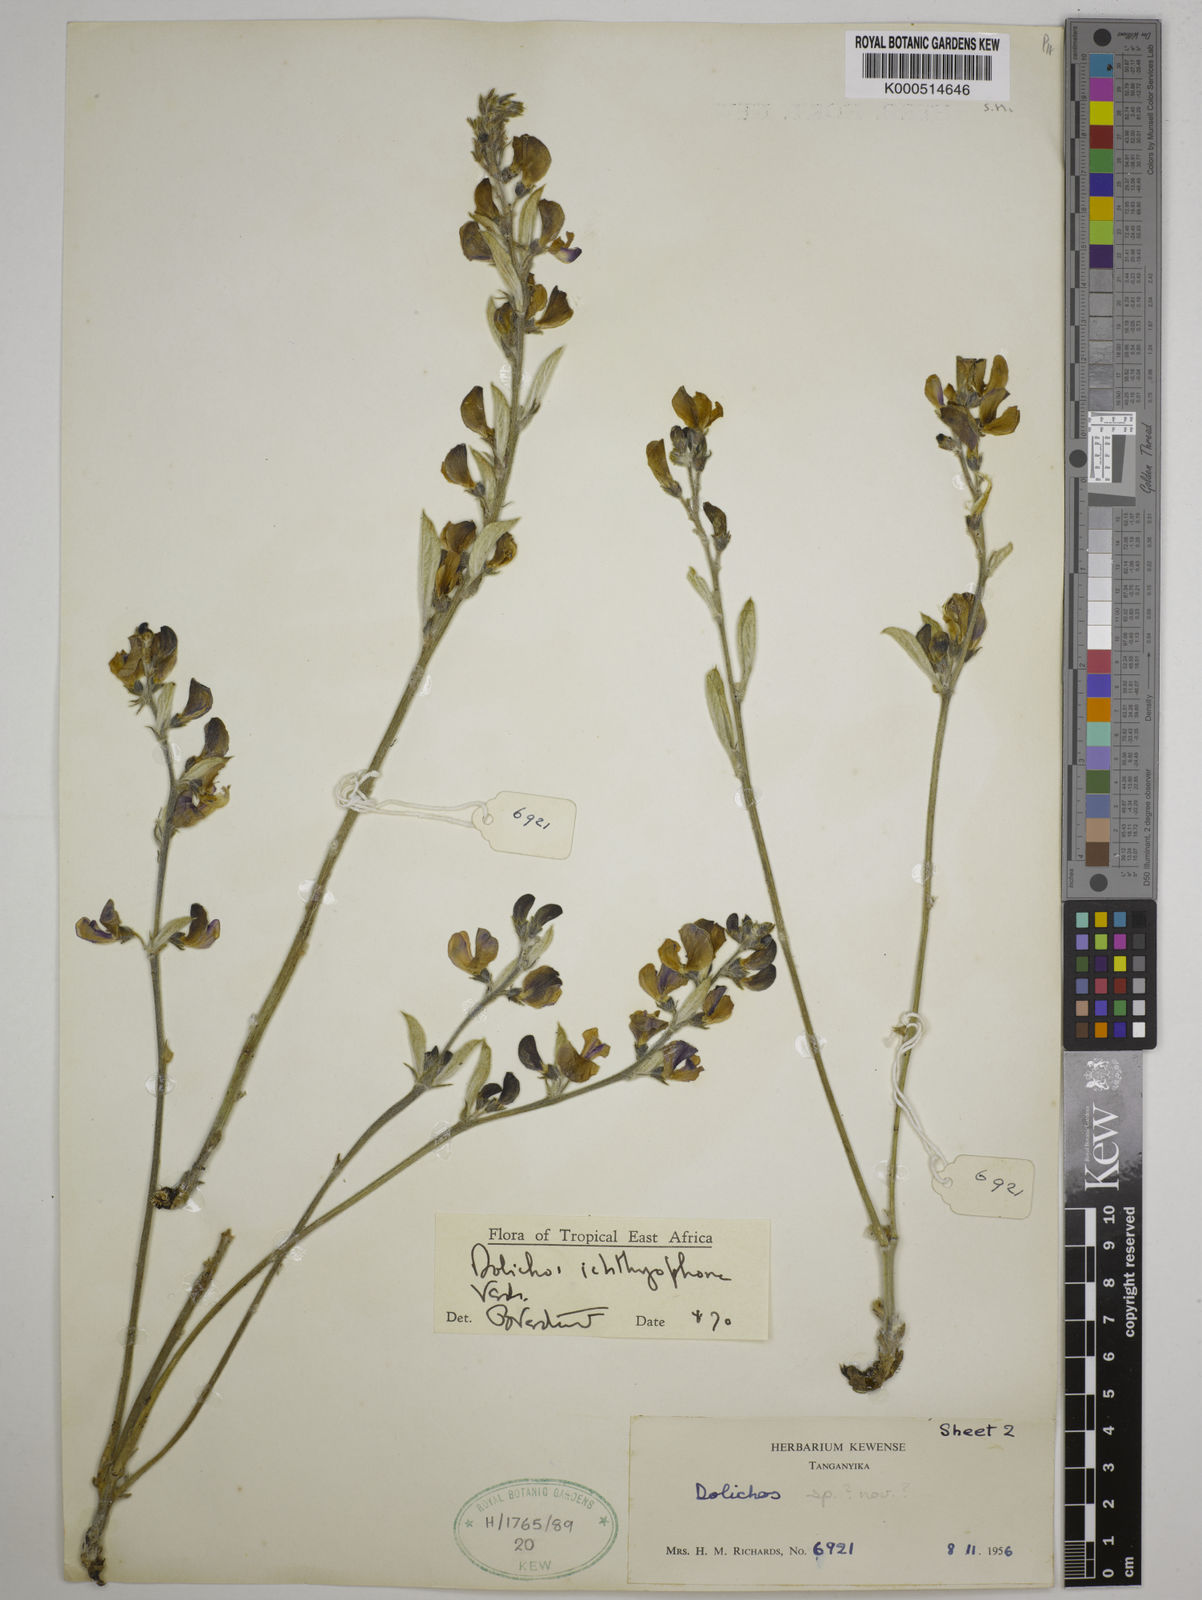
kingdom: Plantae
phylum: Tracheophyta
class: Magnoliopsida
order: Fabales
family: Fabaceae
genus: Dolichos
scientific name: Dolichos ichthyophone
